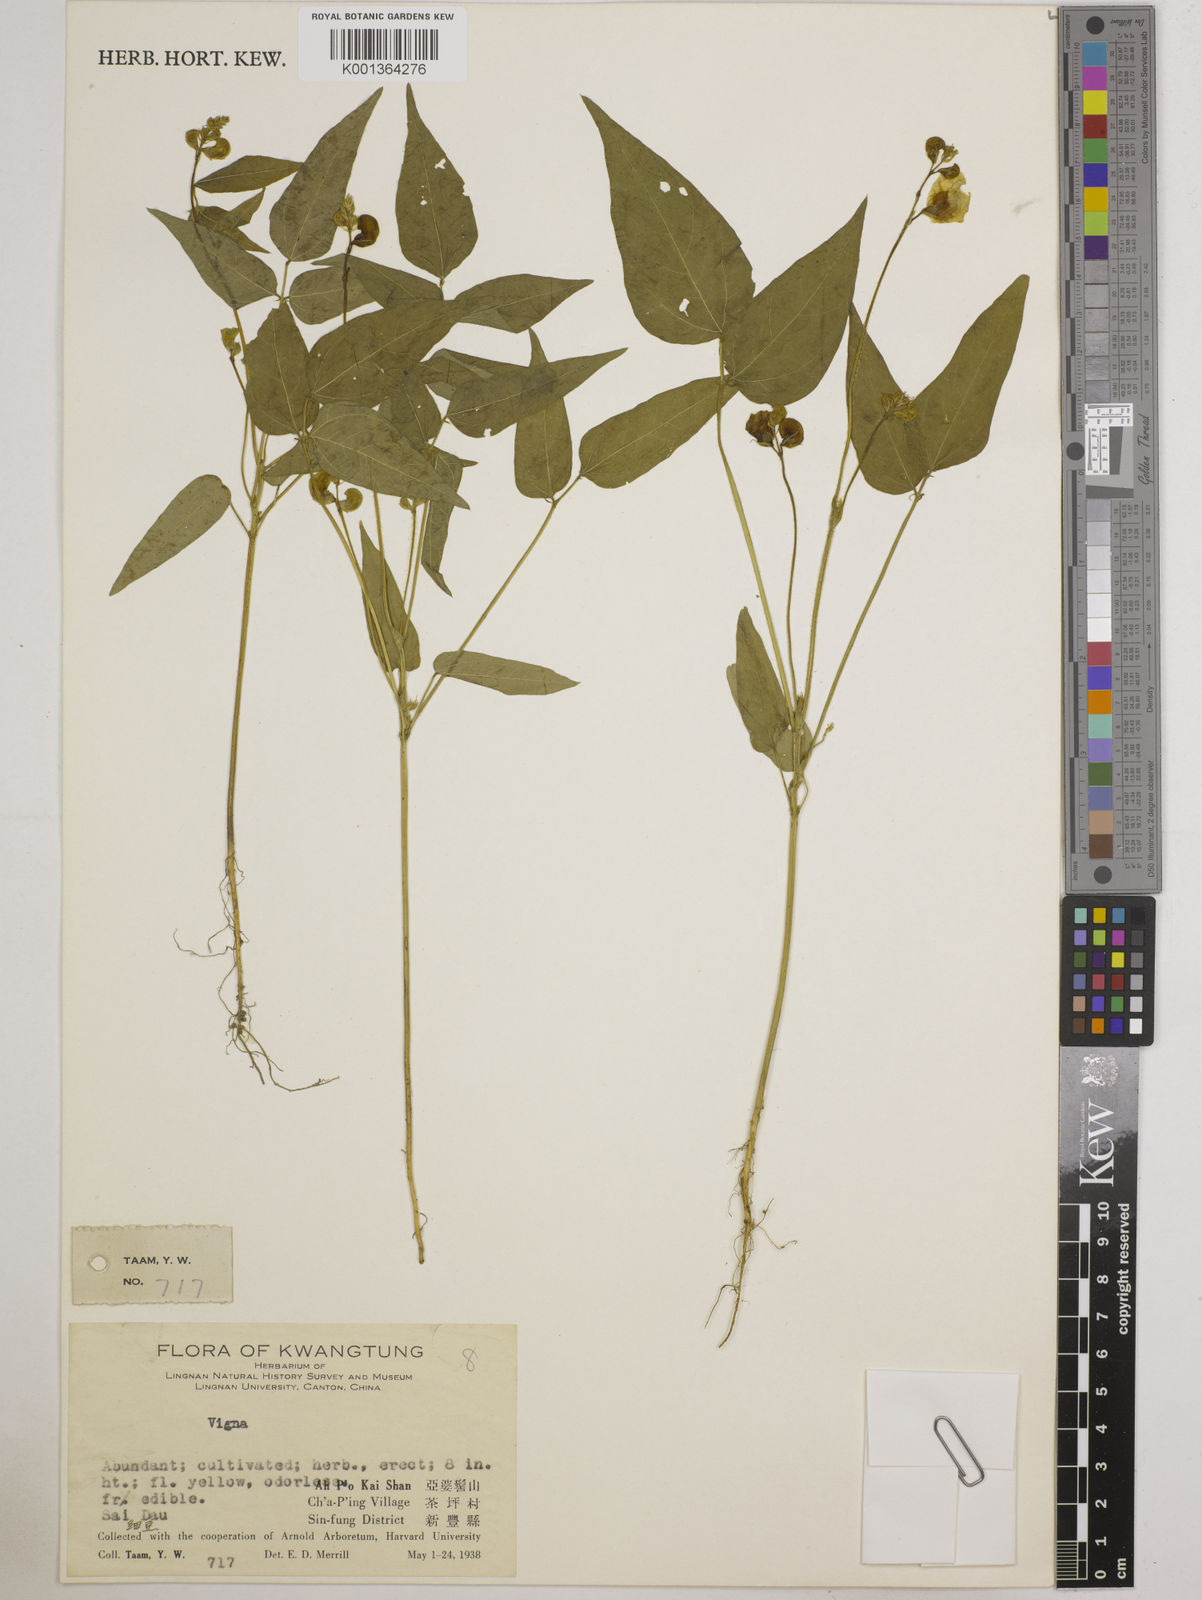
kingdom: Plantae
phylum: Tracheophyta
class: Magnoliopsida
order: Fabales
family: Fabaceae
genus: Vigna
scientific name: Vigna
